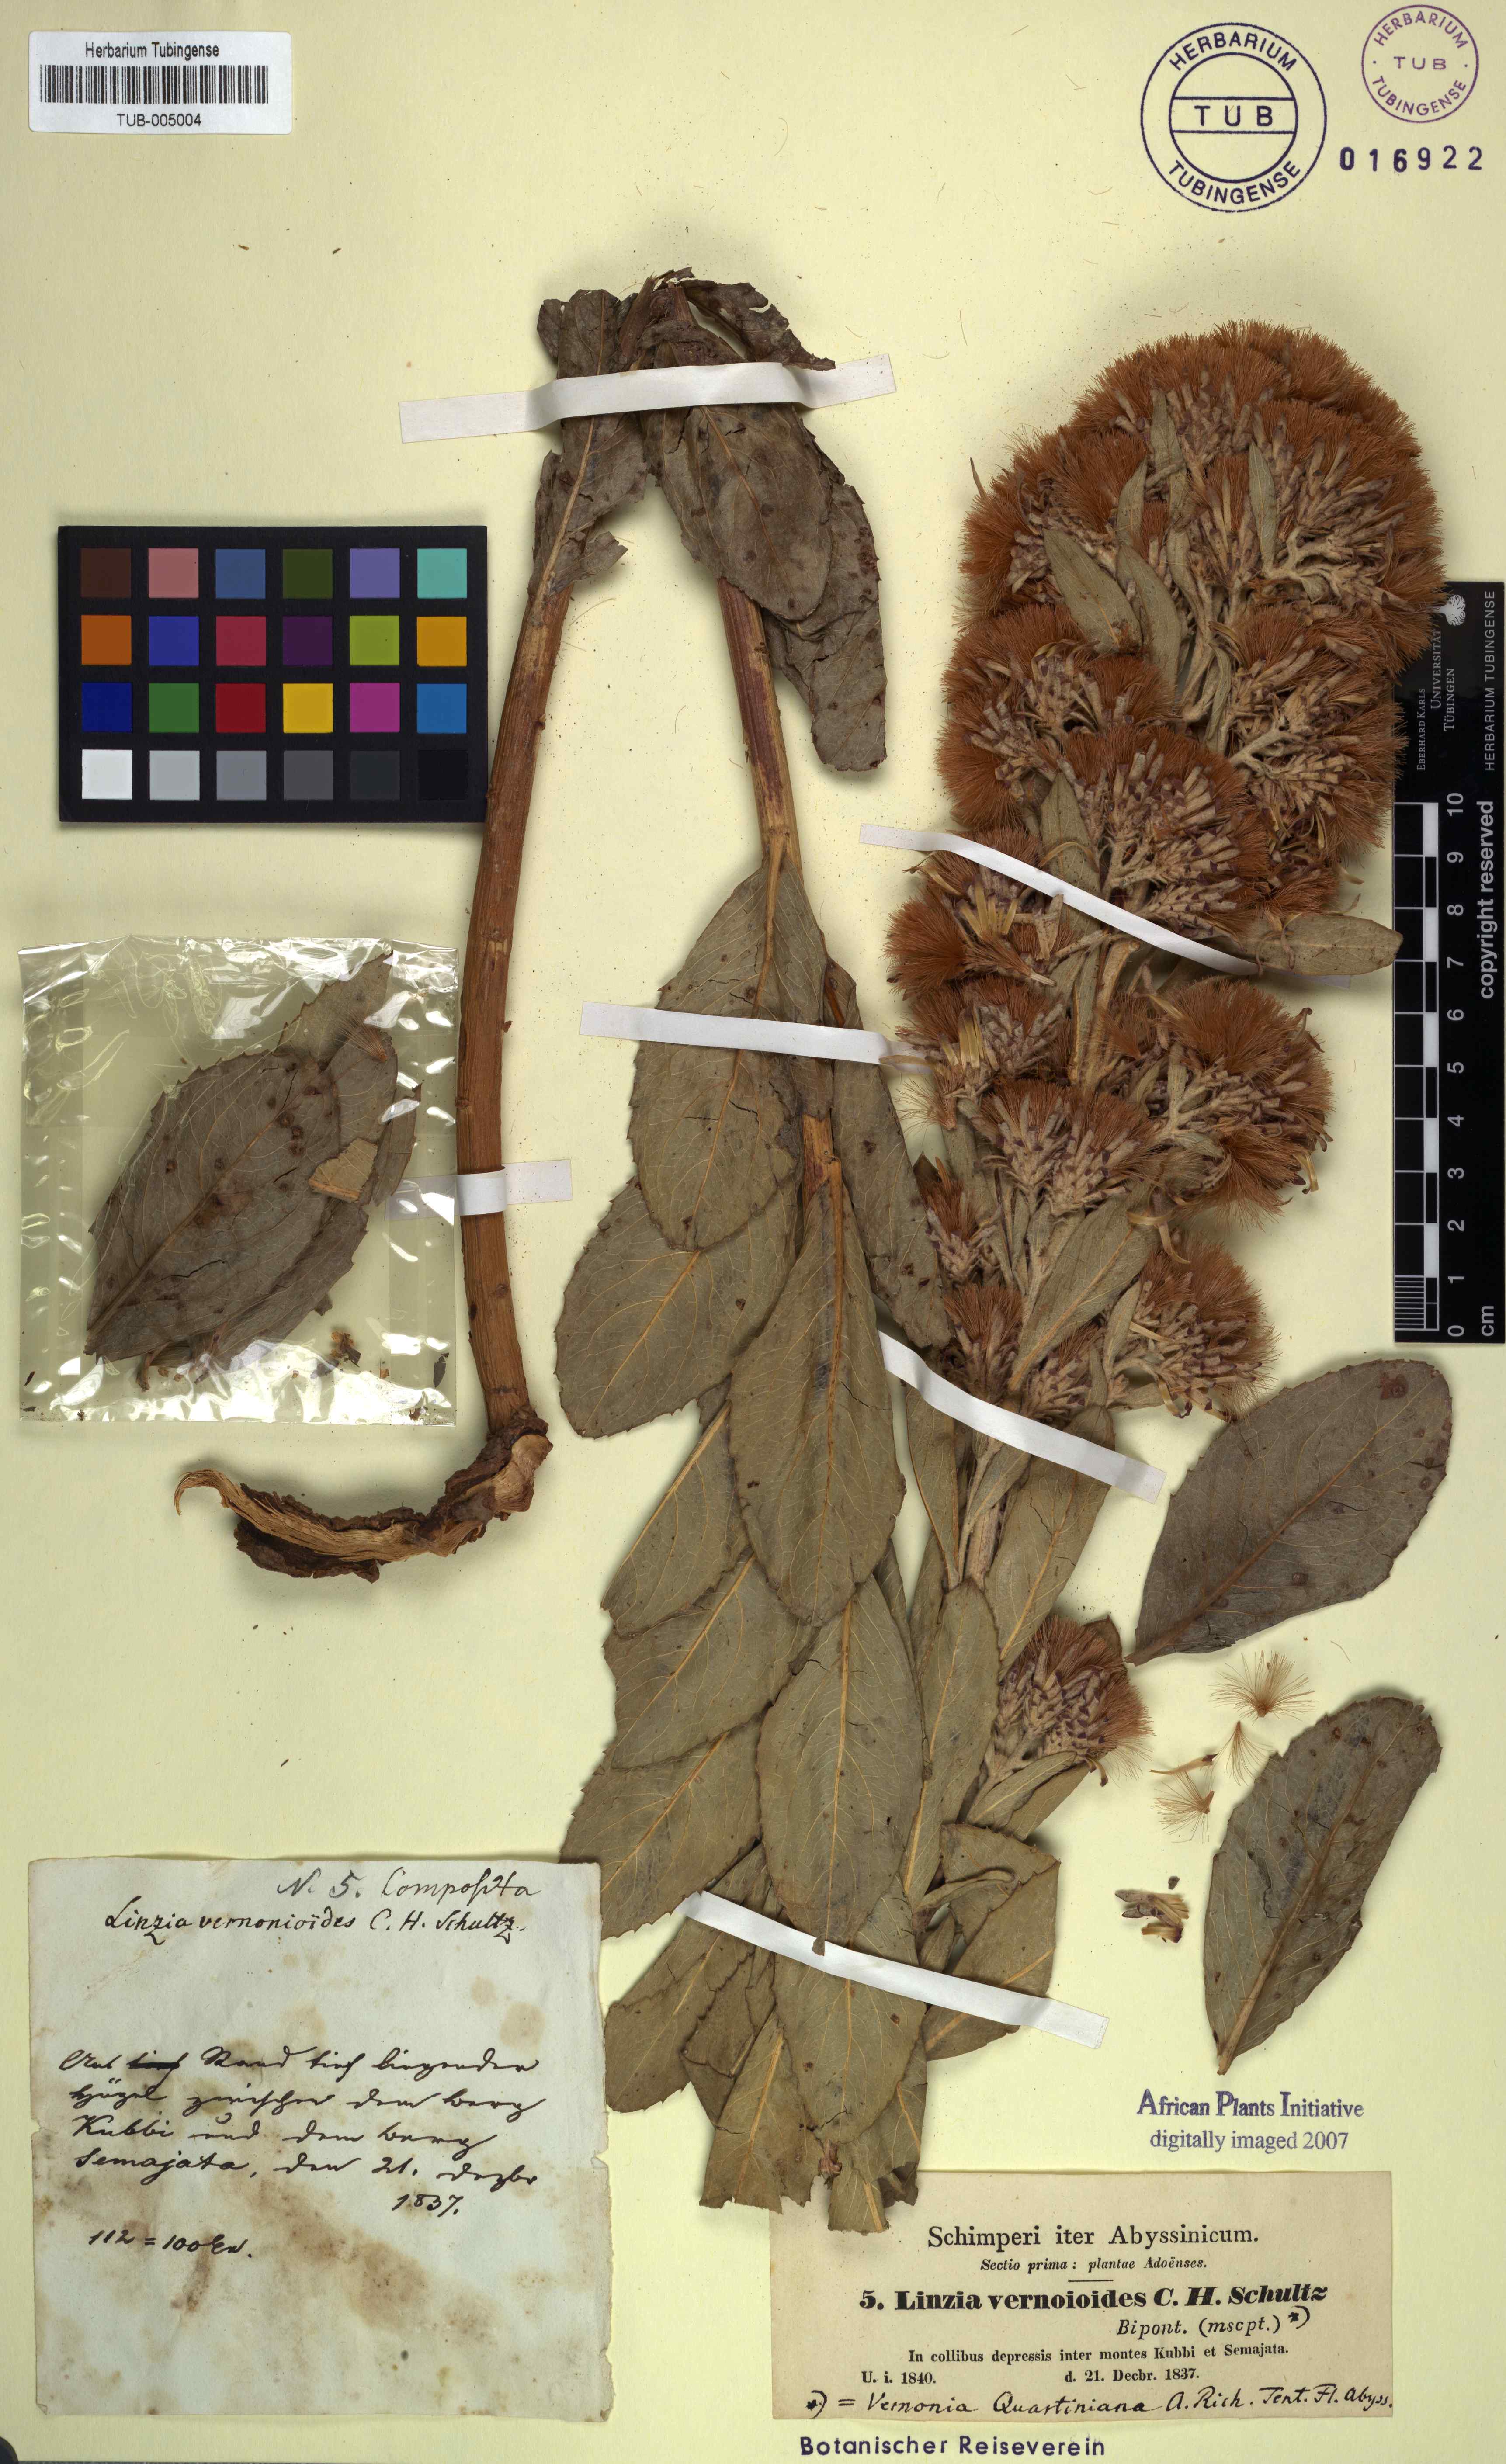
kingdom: Plantae
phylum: Tracheophyta
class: Magnoliopsida
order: Asterales
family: Asteraceae
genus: Vernonia
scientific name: Vernonia congolensis
